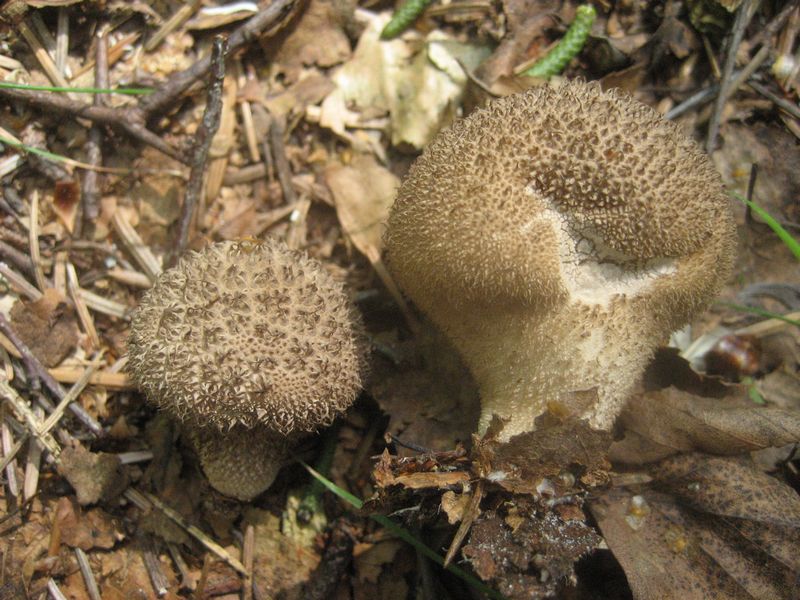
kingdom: Fungi
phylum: Basidiomycota
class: Agaricomycetes
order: Agaricales
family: Lycoperdaceae
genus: Lycoperdon
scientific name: Lycoperdon nigrescens
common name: sortagtig støvbold
